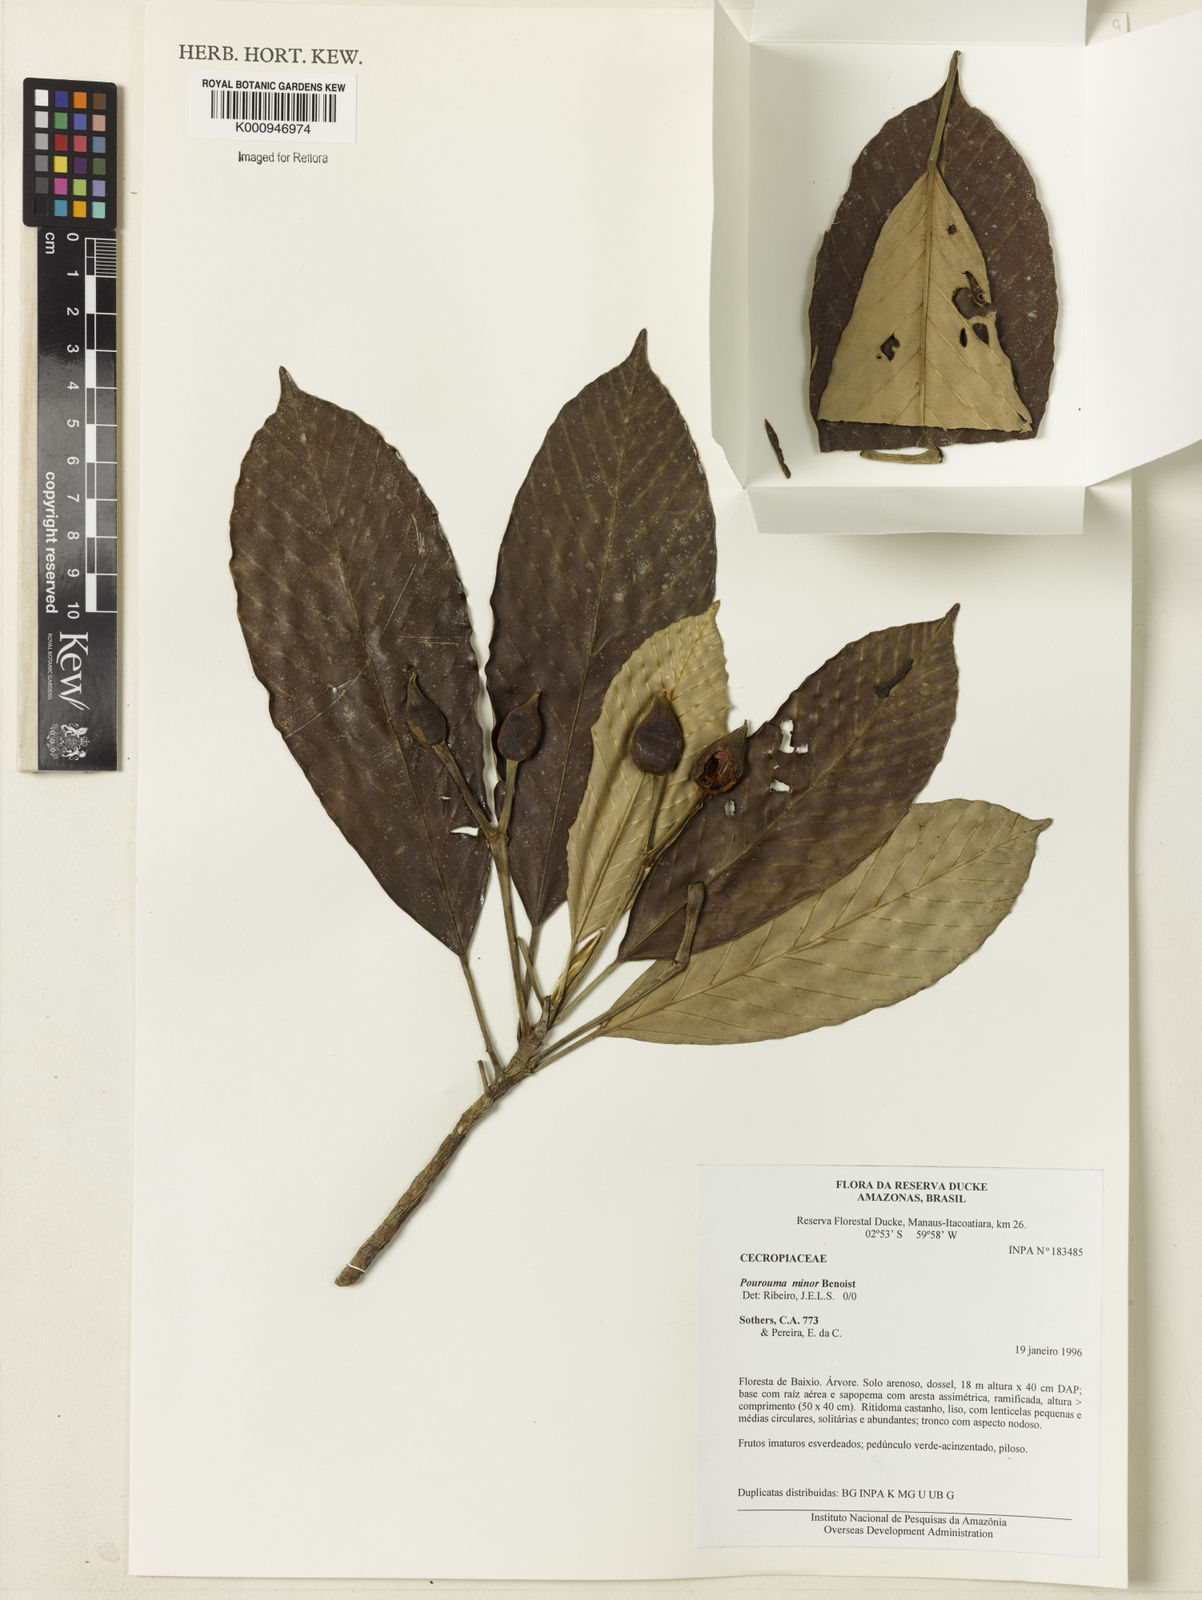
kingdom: Plantae
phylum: Tracheophyta
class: Magnoliopsida
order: Rosales
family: Urticaceae
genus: Pourouma
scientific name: Pourouma minor
